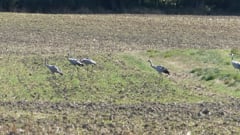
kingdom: Animalia
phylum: Chordata
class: Aves
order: Gruiformes
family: Gruidae
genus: Grus
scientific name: Grus grus
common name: Common crane
